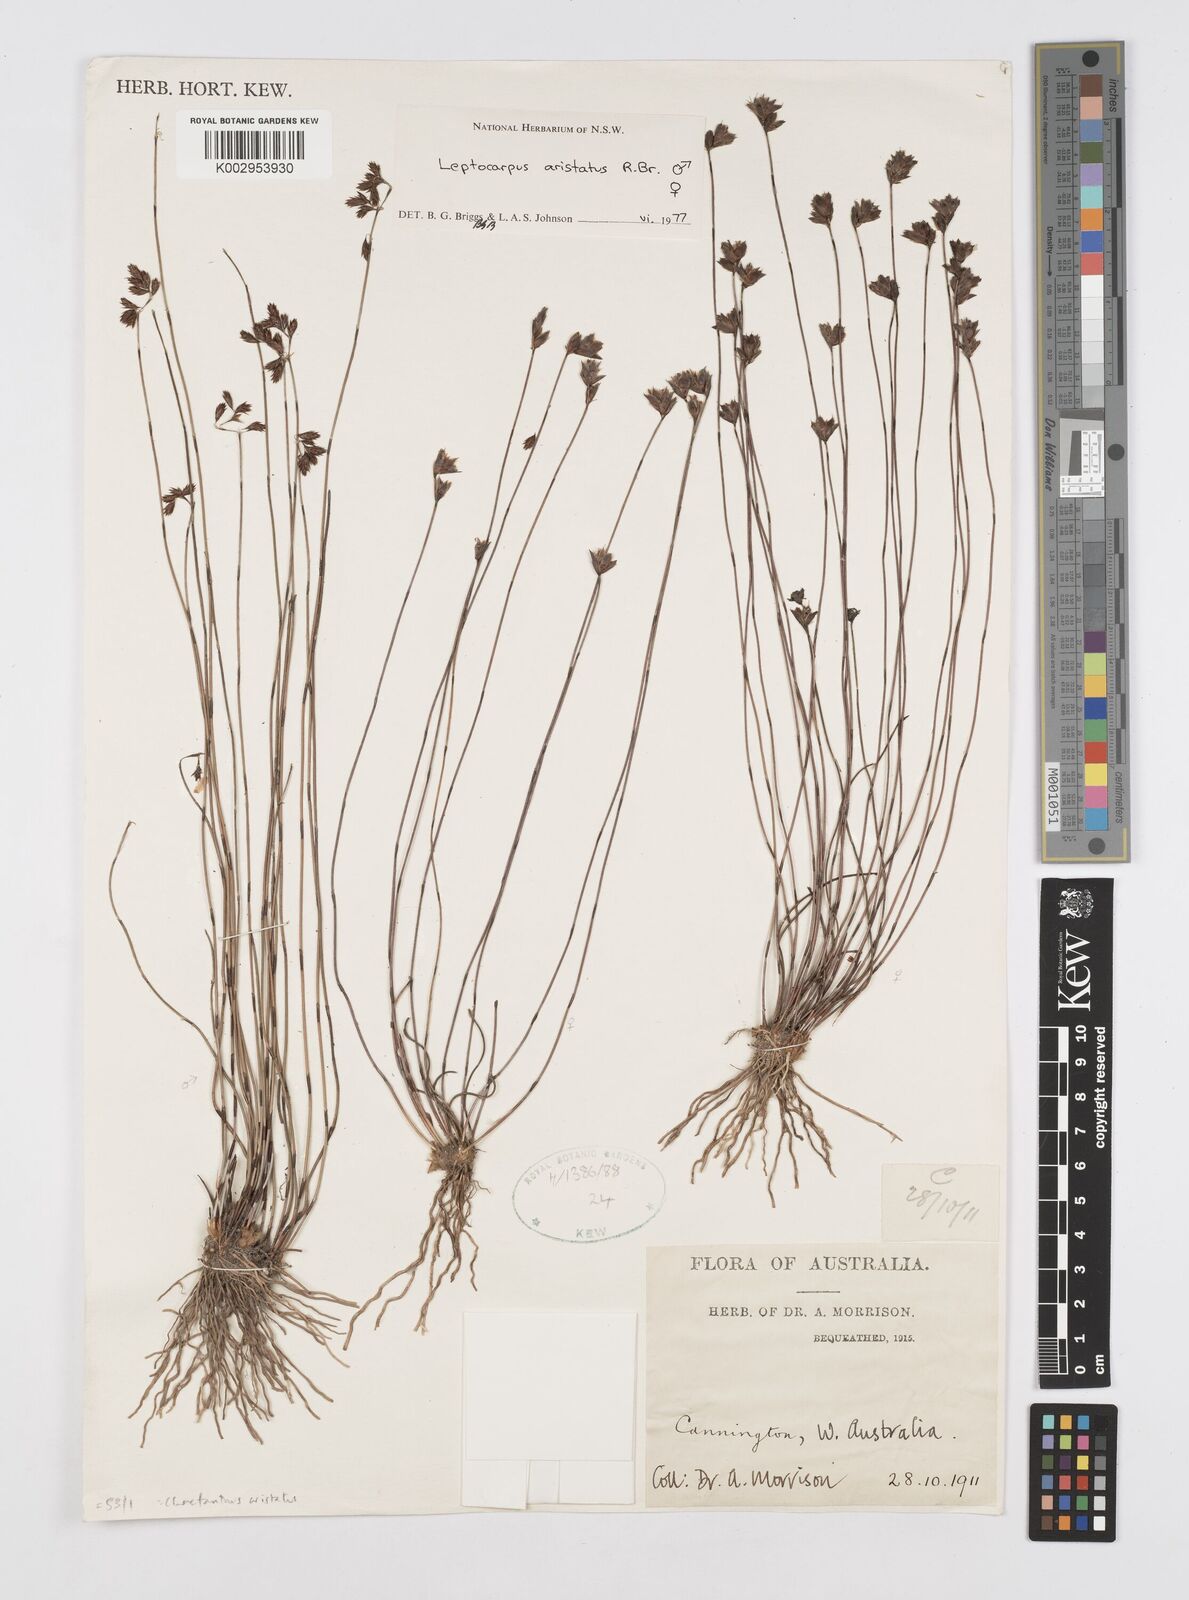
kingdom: Plantae
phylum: Tracheophyta
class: Liliopsida
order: Poales
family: Restionaceae
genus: Chaetanthus
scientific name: Chaetanthus aristatus
